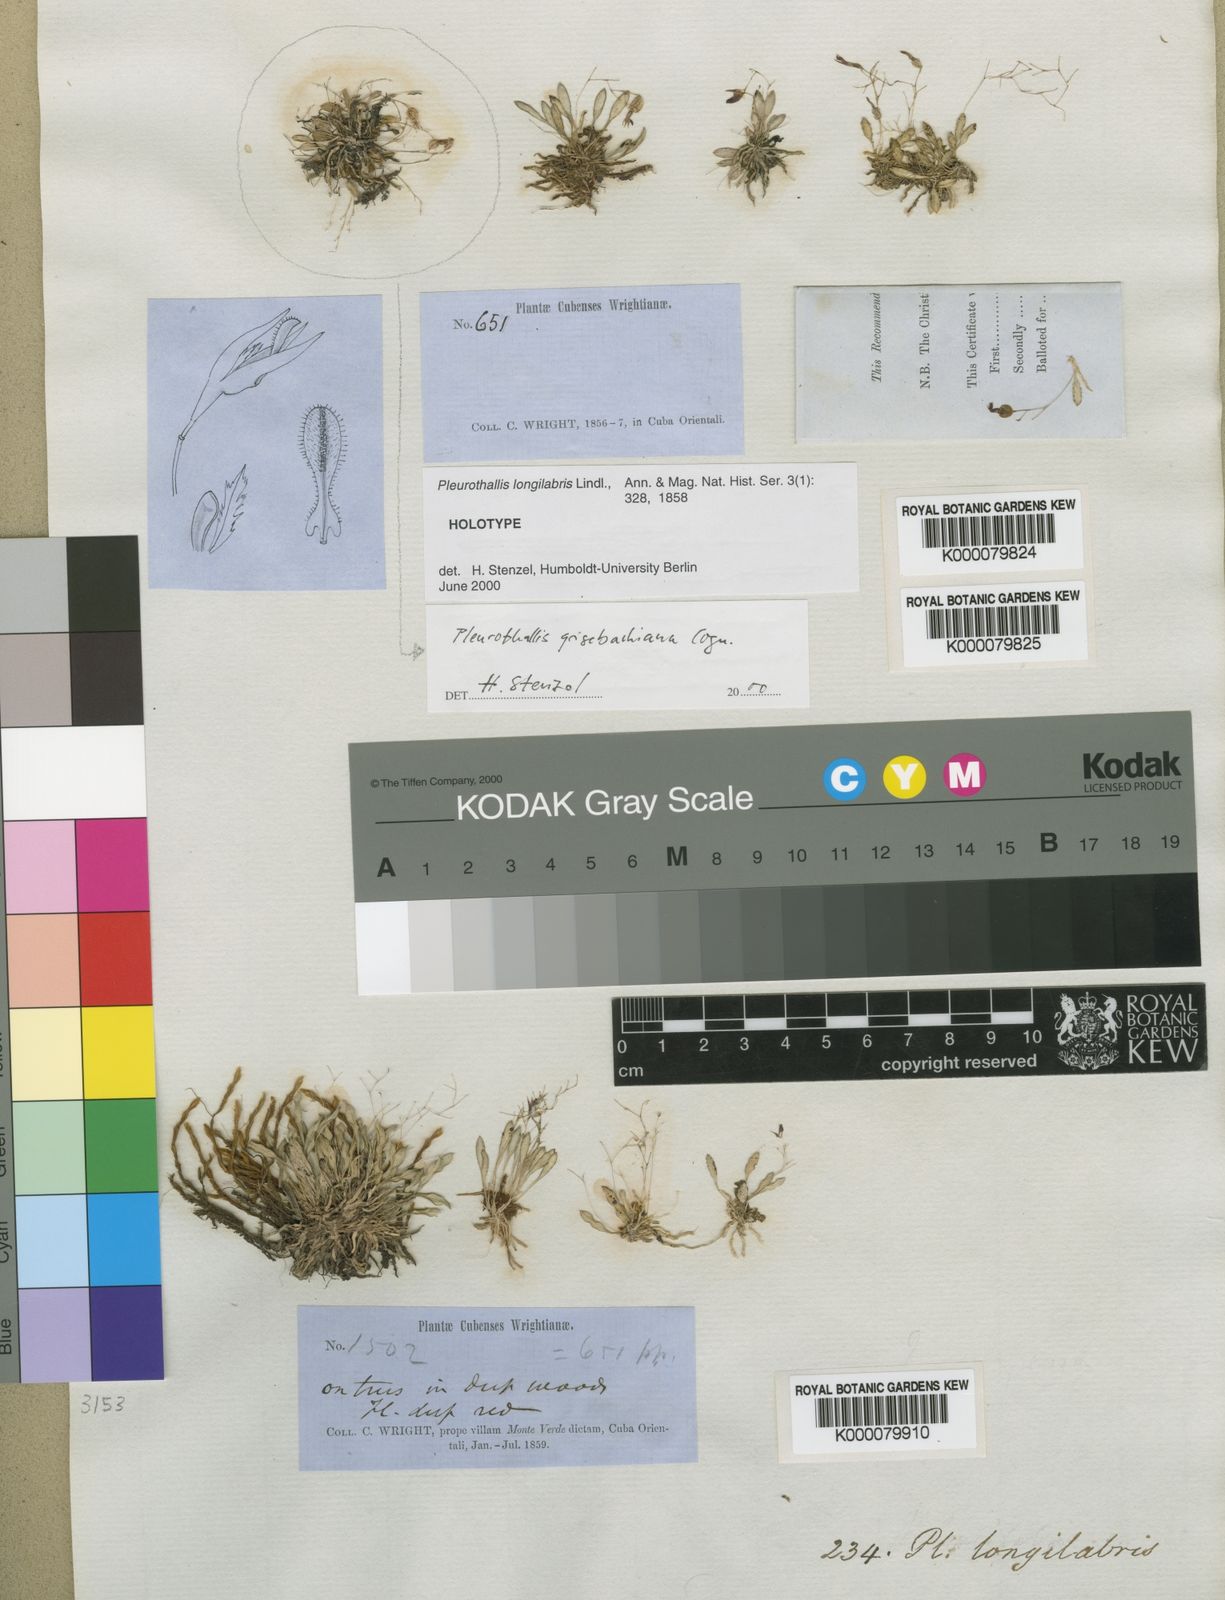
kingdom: Plantae
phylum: Tracheophyta
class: Liliopsida
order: Asparagales
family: Orchidaceae
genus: Muscarella
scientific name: Muscarella longilabris
